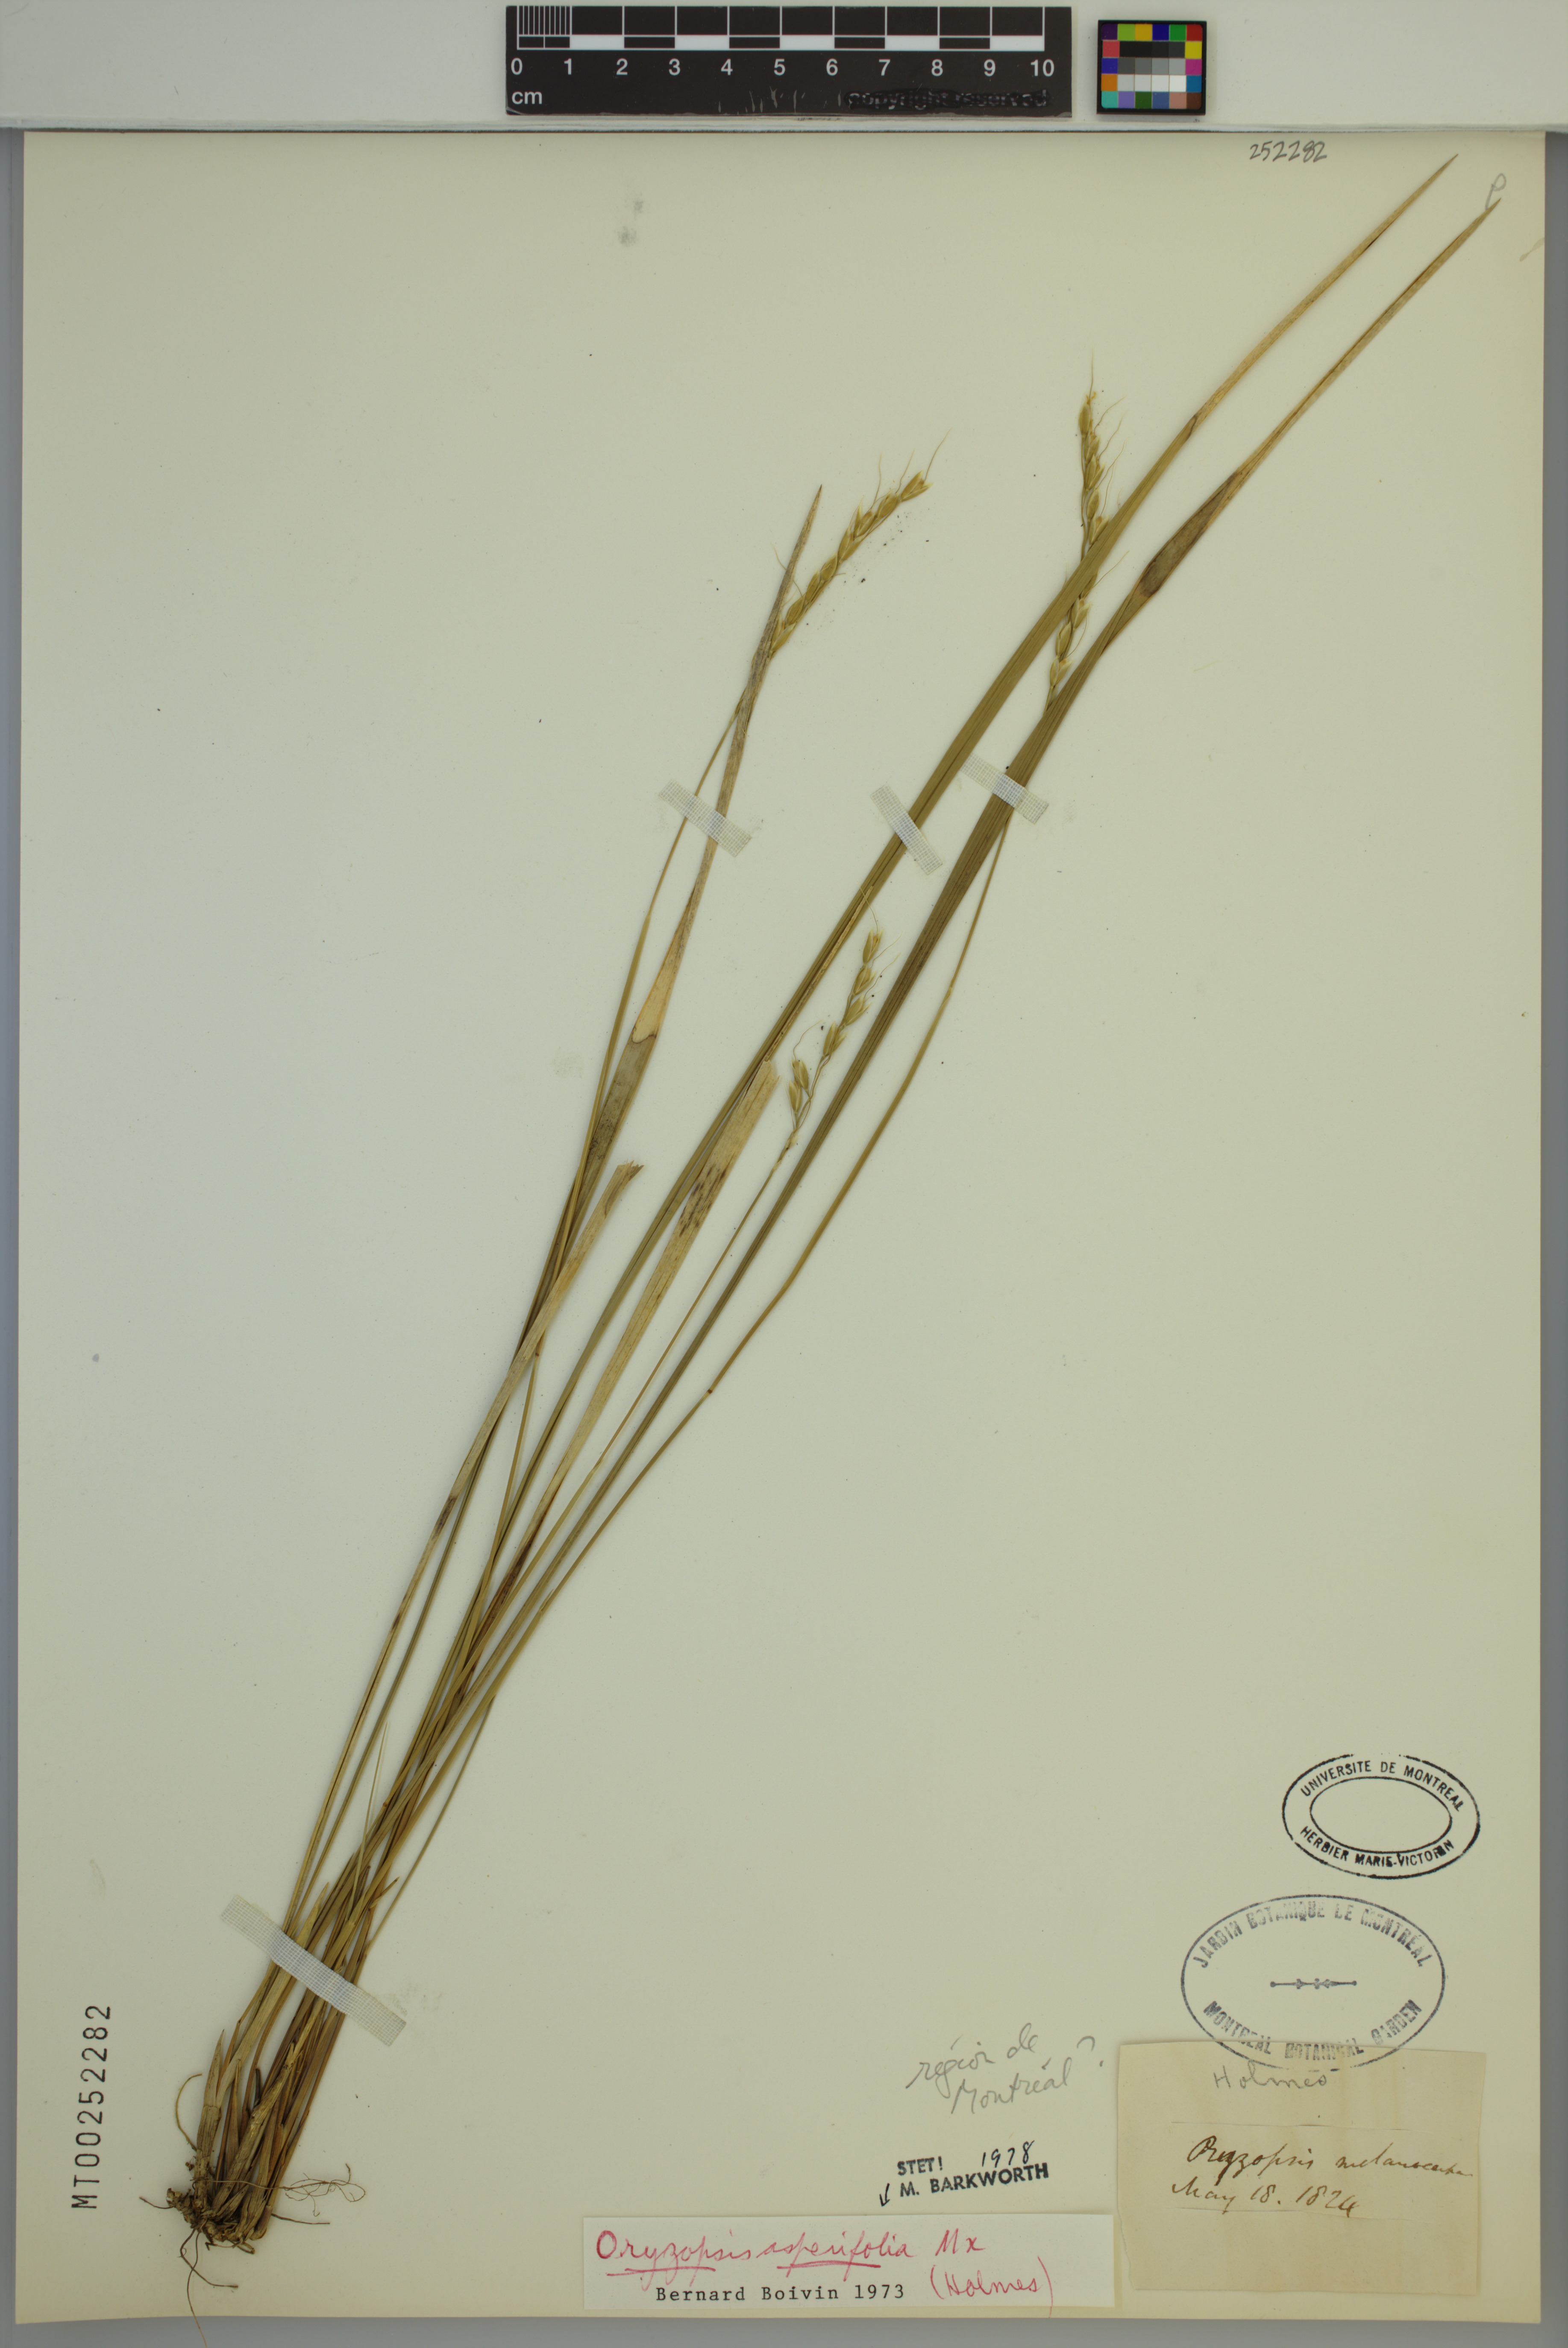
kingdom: Plantae
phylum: Tracheophyta
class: Liliopsida
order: Poales
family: Poaceae
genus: Oryzopsis
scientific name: Oryzopsis asperifolia
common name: Rough-leaved mountain rice
